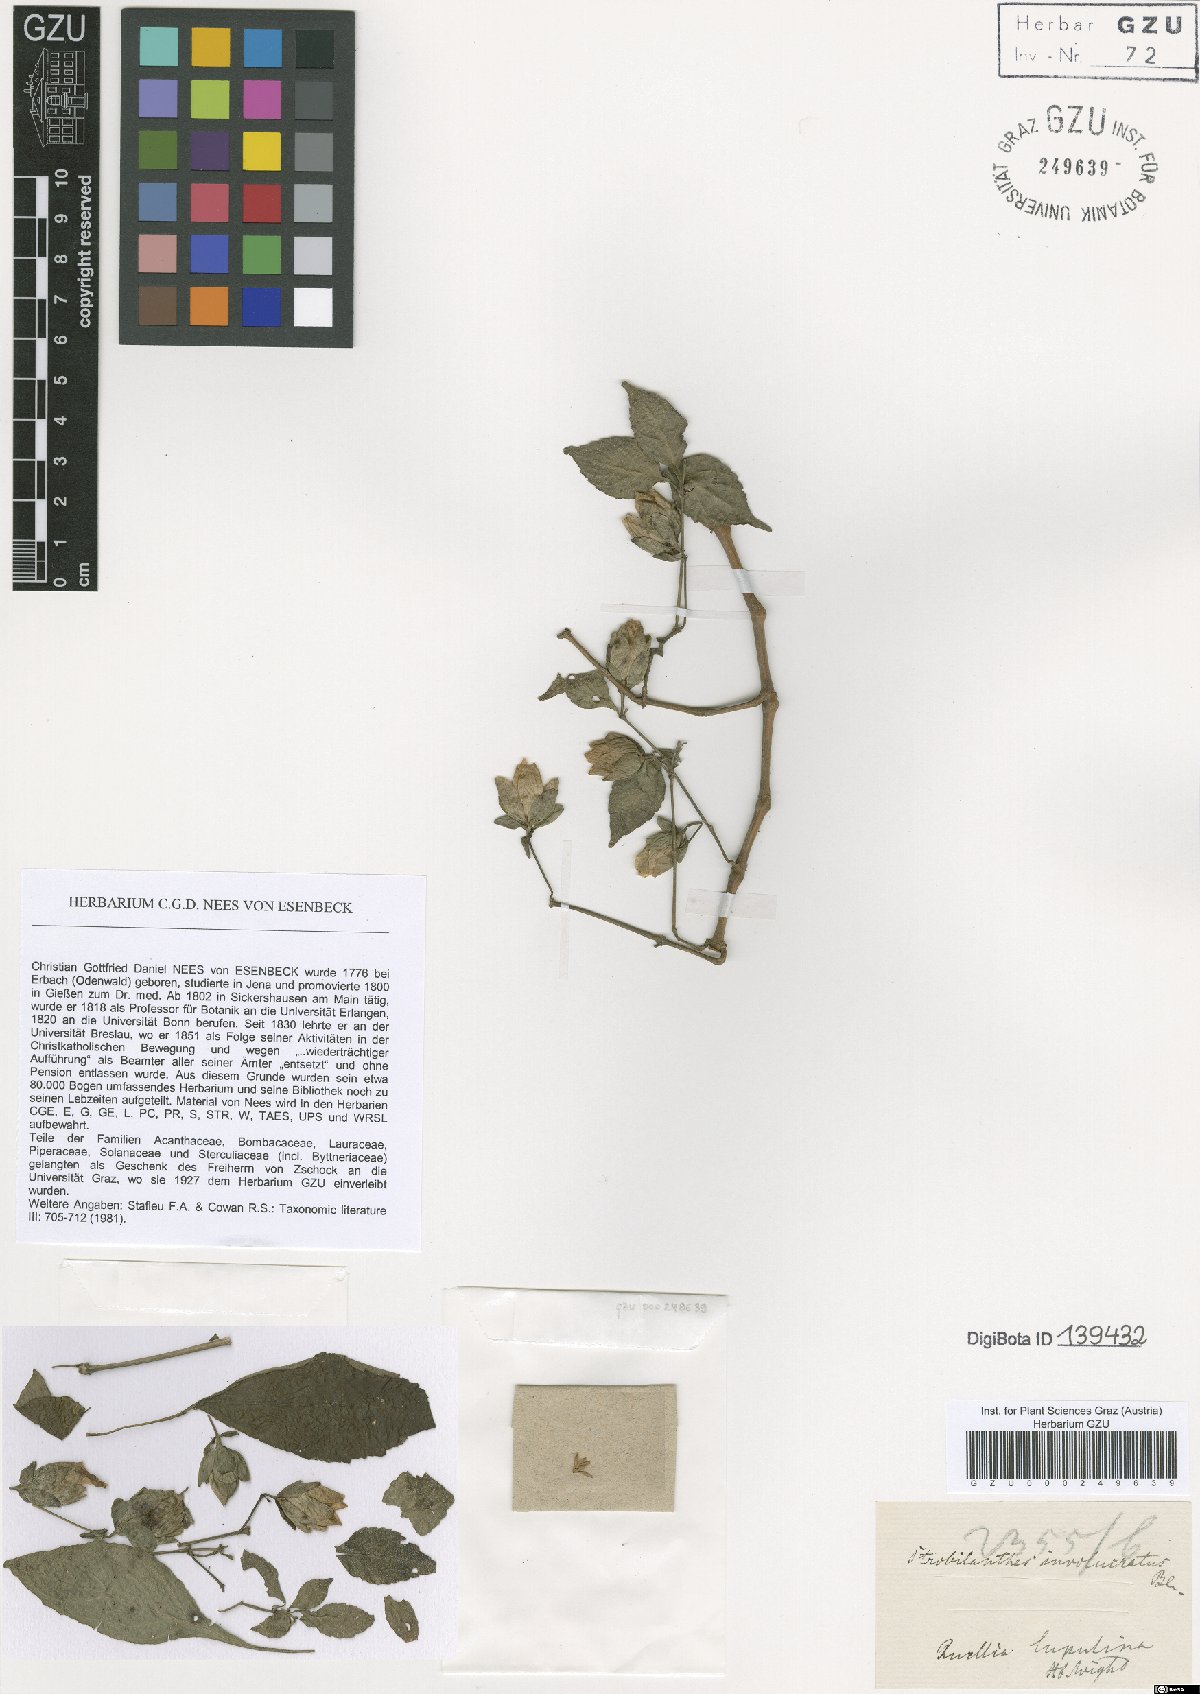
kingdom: Plantae
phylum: Tracheophyta
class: Magnoliopsida
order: Lamiales
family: Acanthaceae
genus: Strobilanthes
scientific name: Strobilanthes lupulina
